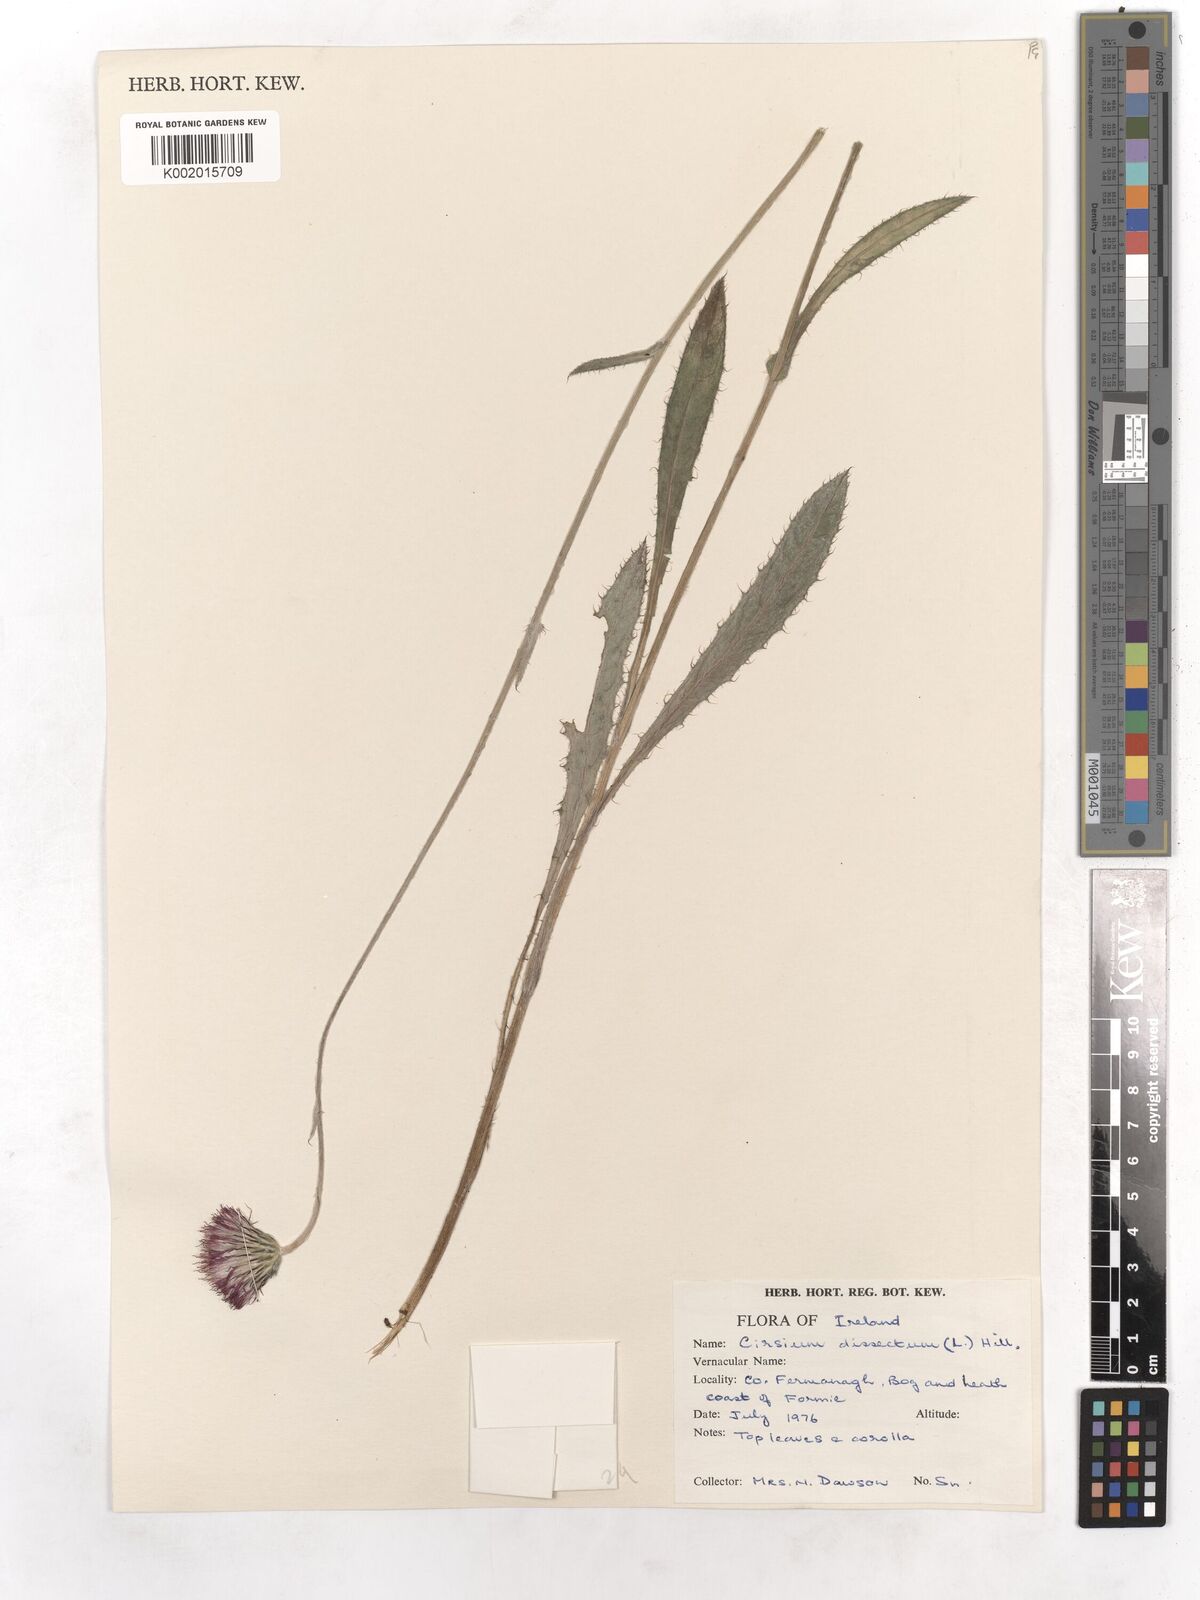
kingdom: Plantae
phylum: Tracheophyta
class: Magnoliopsida
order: Asterales
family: Asteraceae
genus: Cirsium
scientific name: Cirsium dissectum
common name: Meadow thistle
